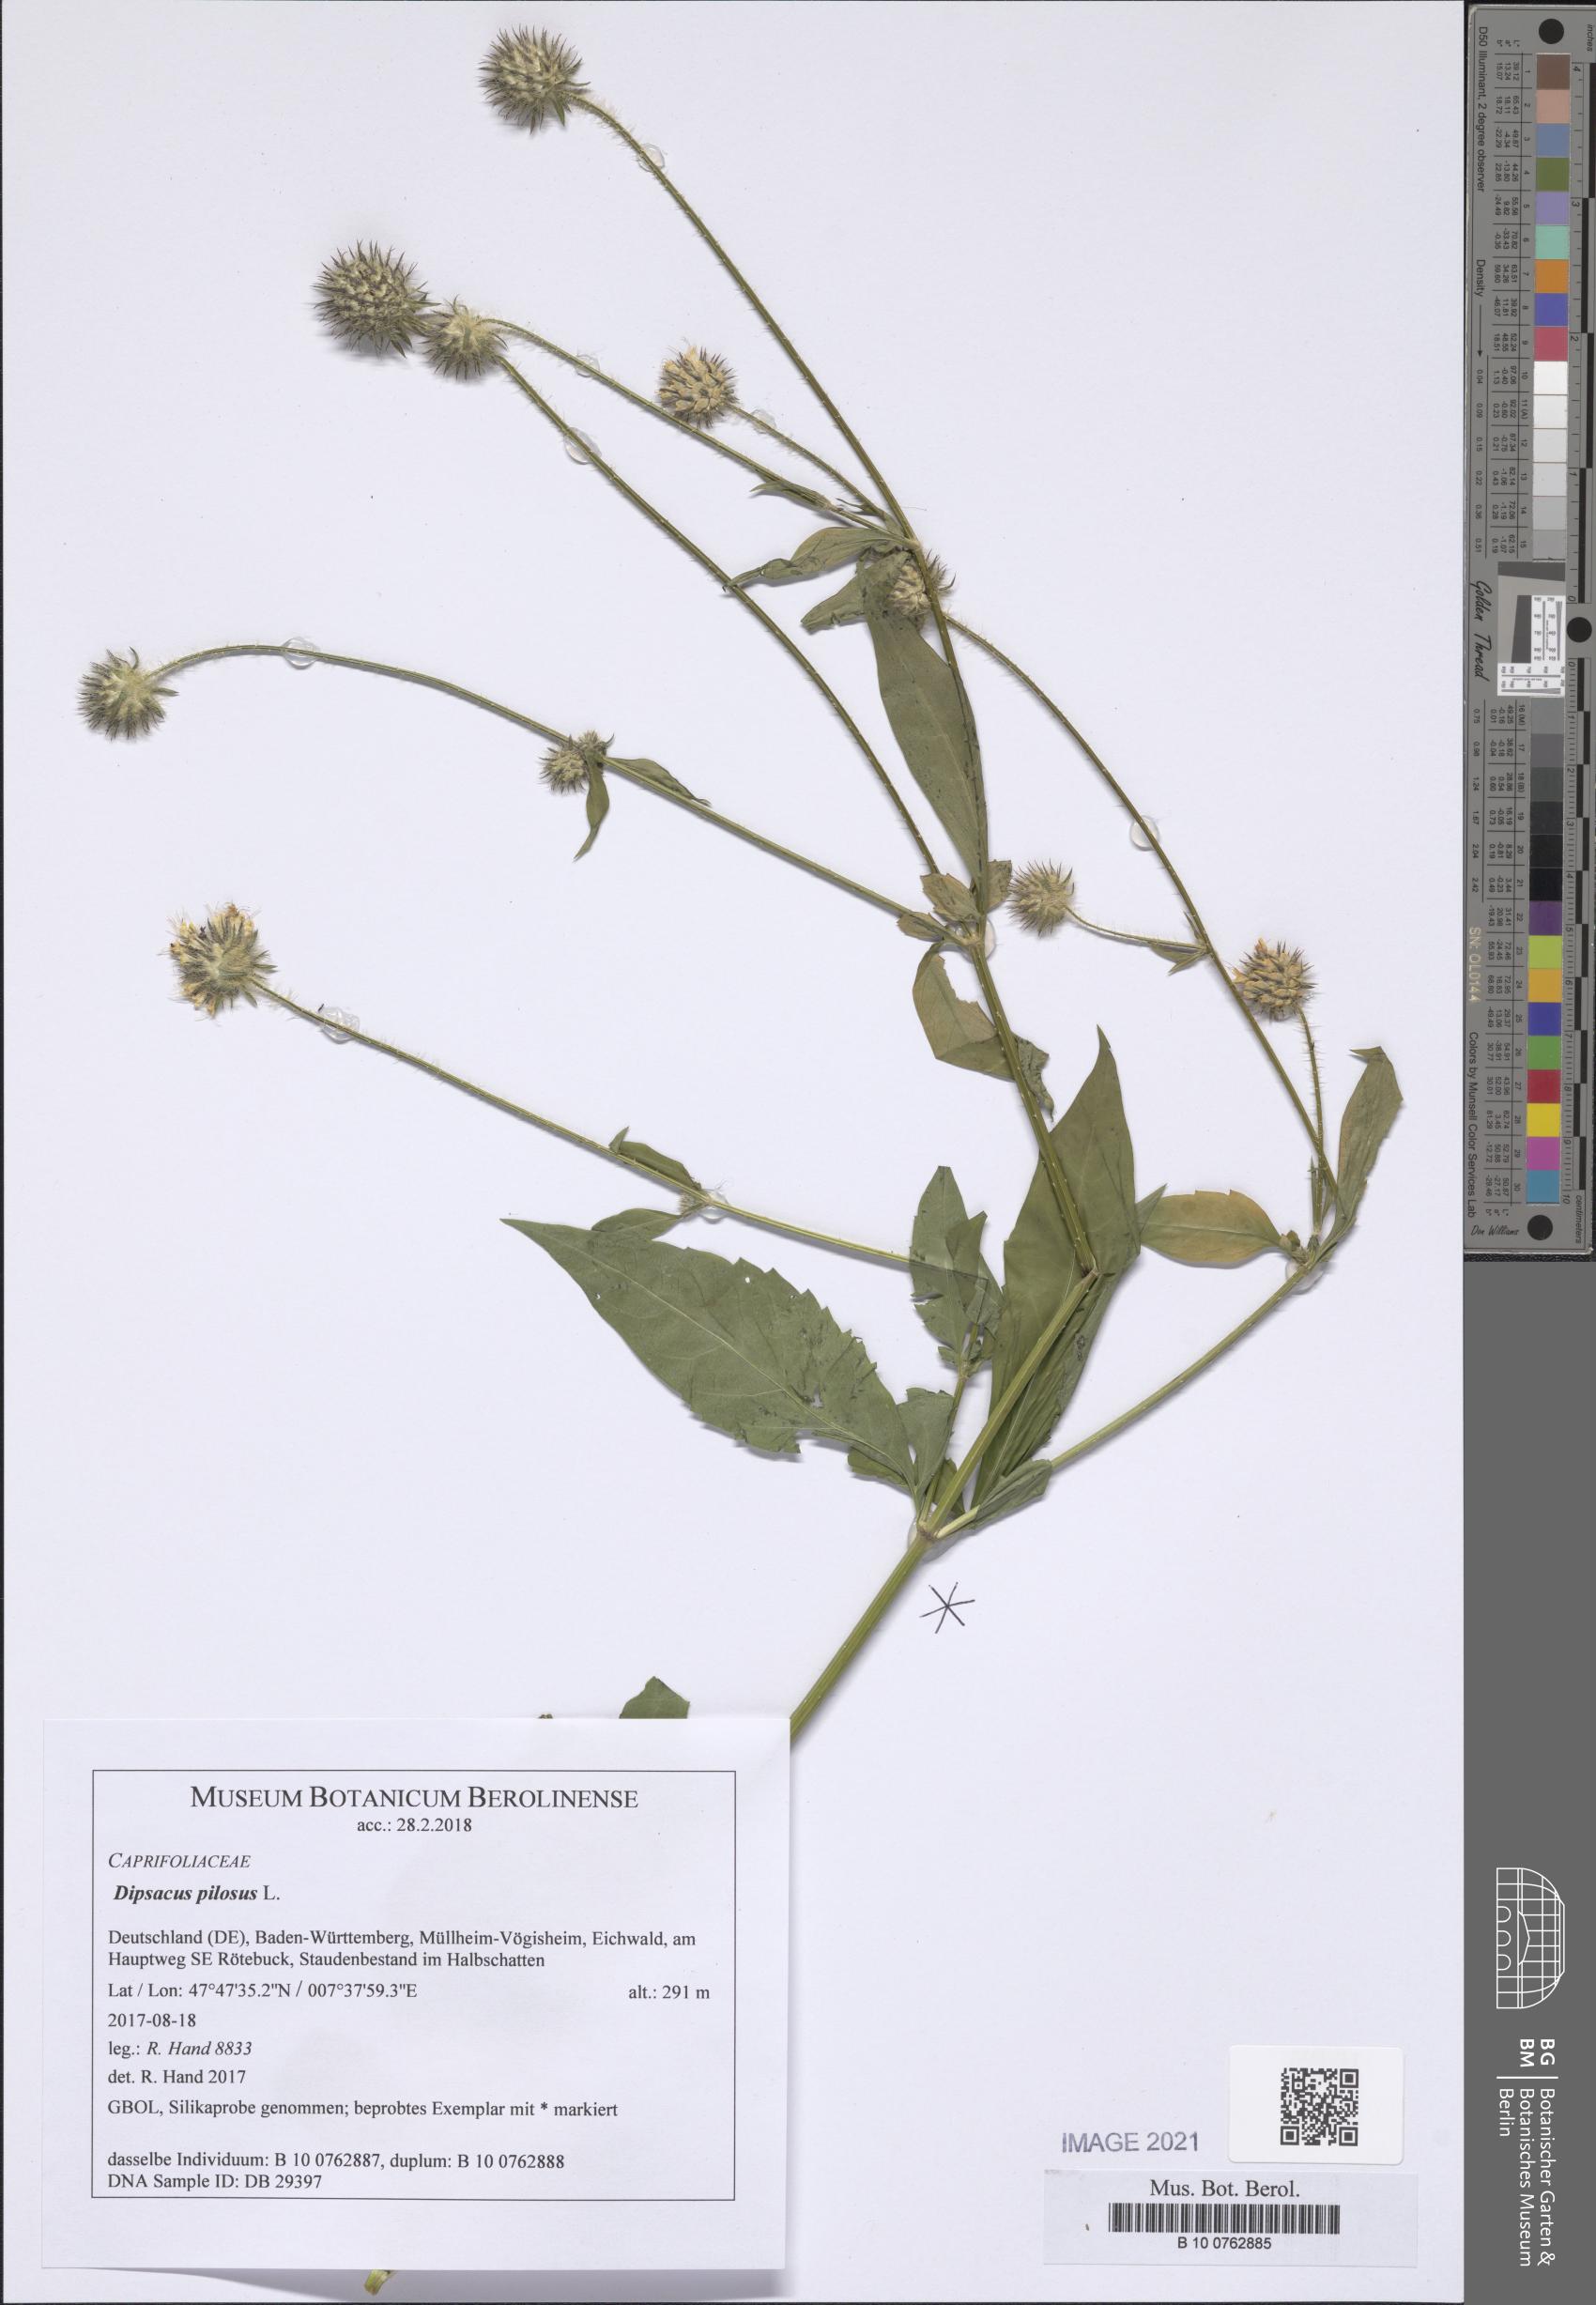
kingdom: Plantae
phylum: Tracheophyta
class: Magnoliopsida
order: Dipsacales
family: Caprifoliaceae
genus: Dipsacus
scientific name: Dipsacus pilosus
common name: Small teasel
